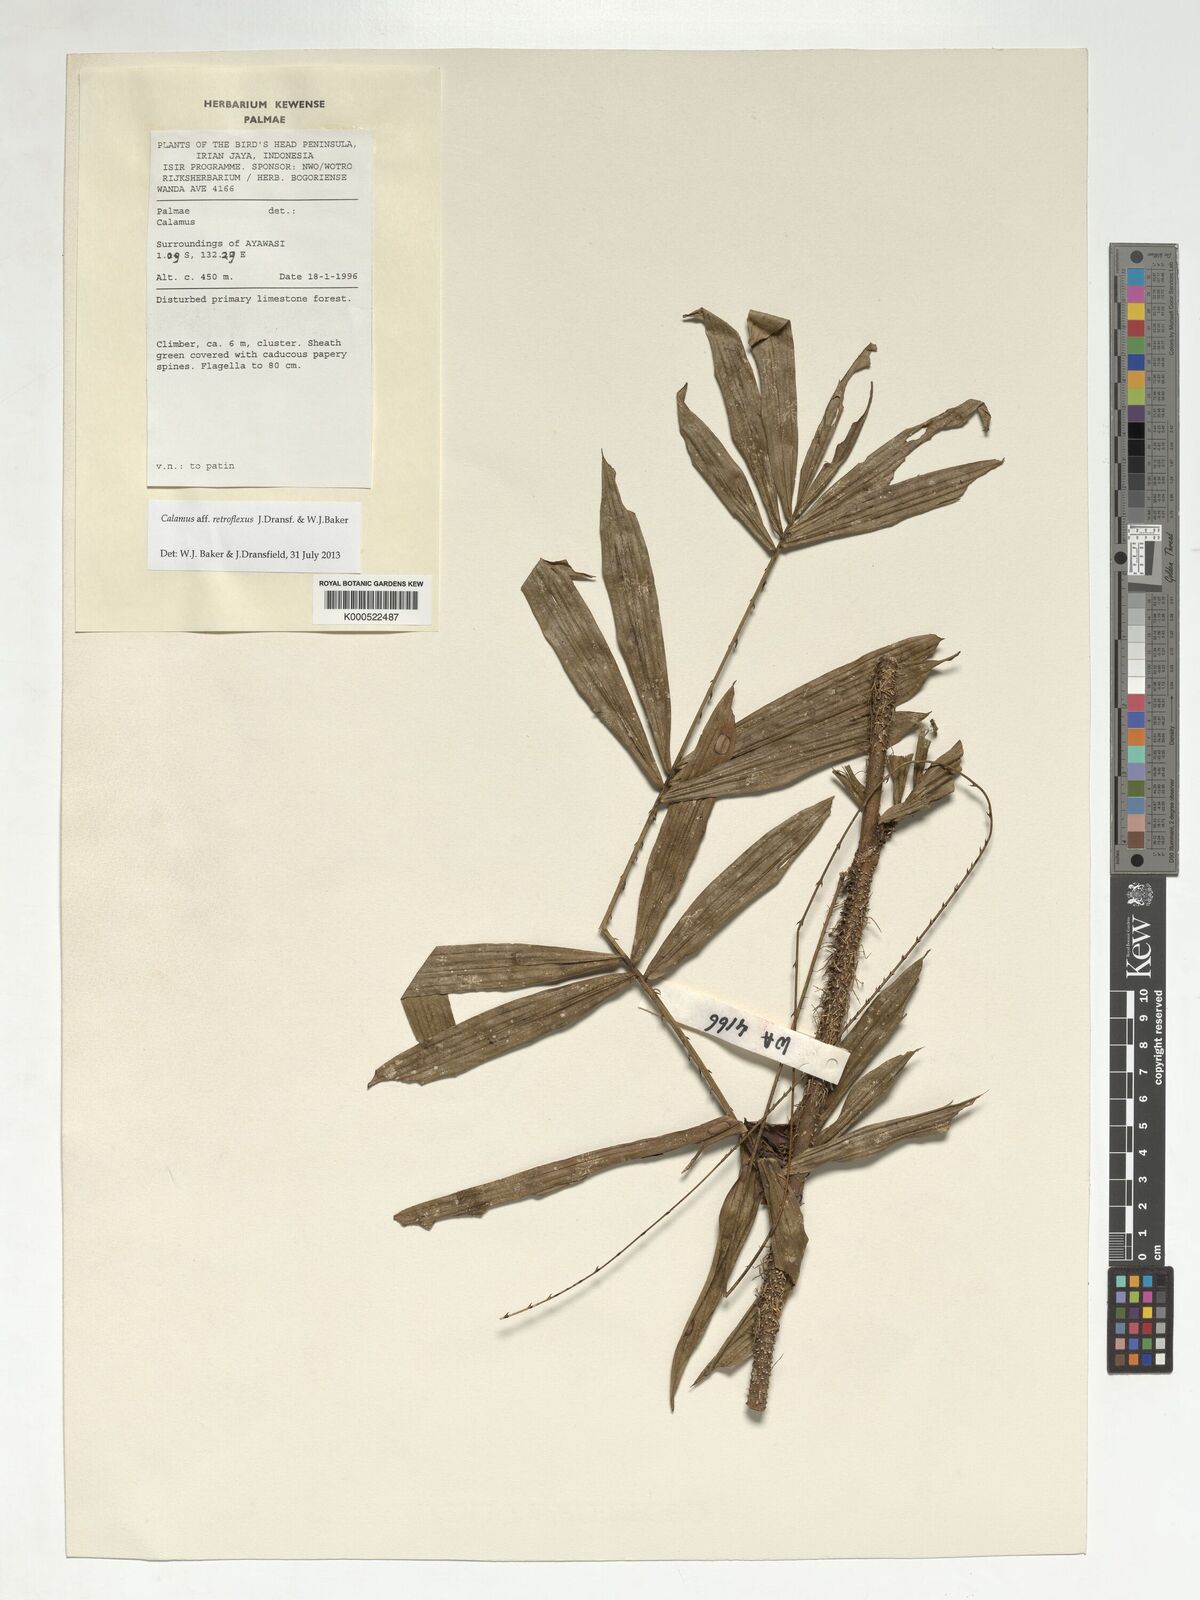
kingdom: Plantae
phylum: Tracheophyta
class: Liliopsida
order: Arecales
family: Arecaceae
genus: Calamus
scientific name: Calamus
